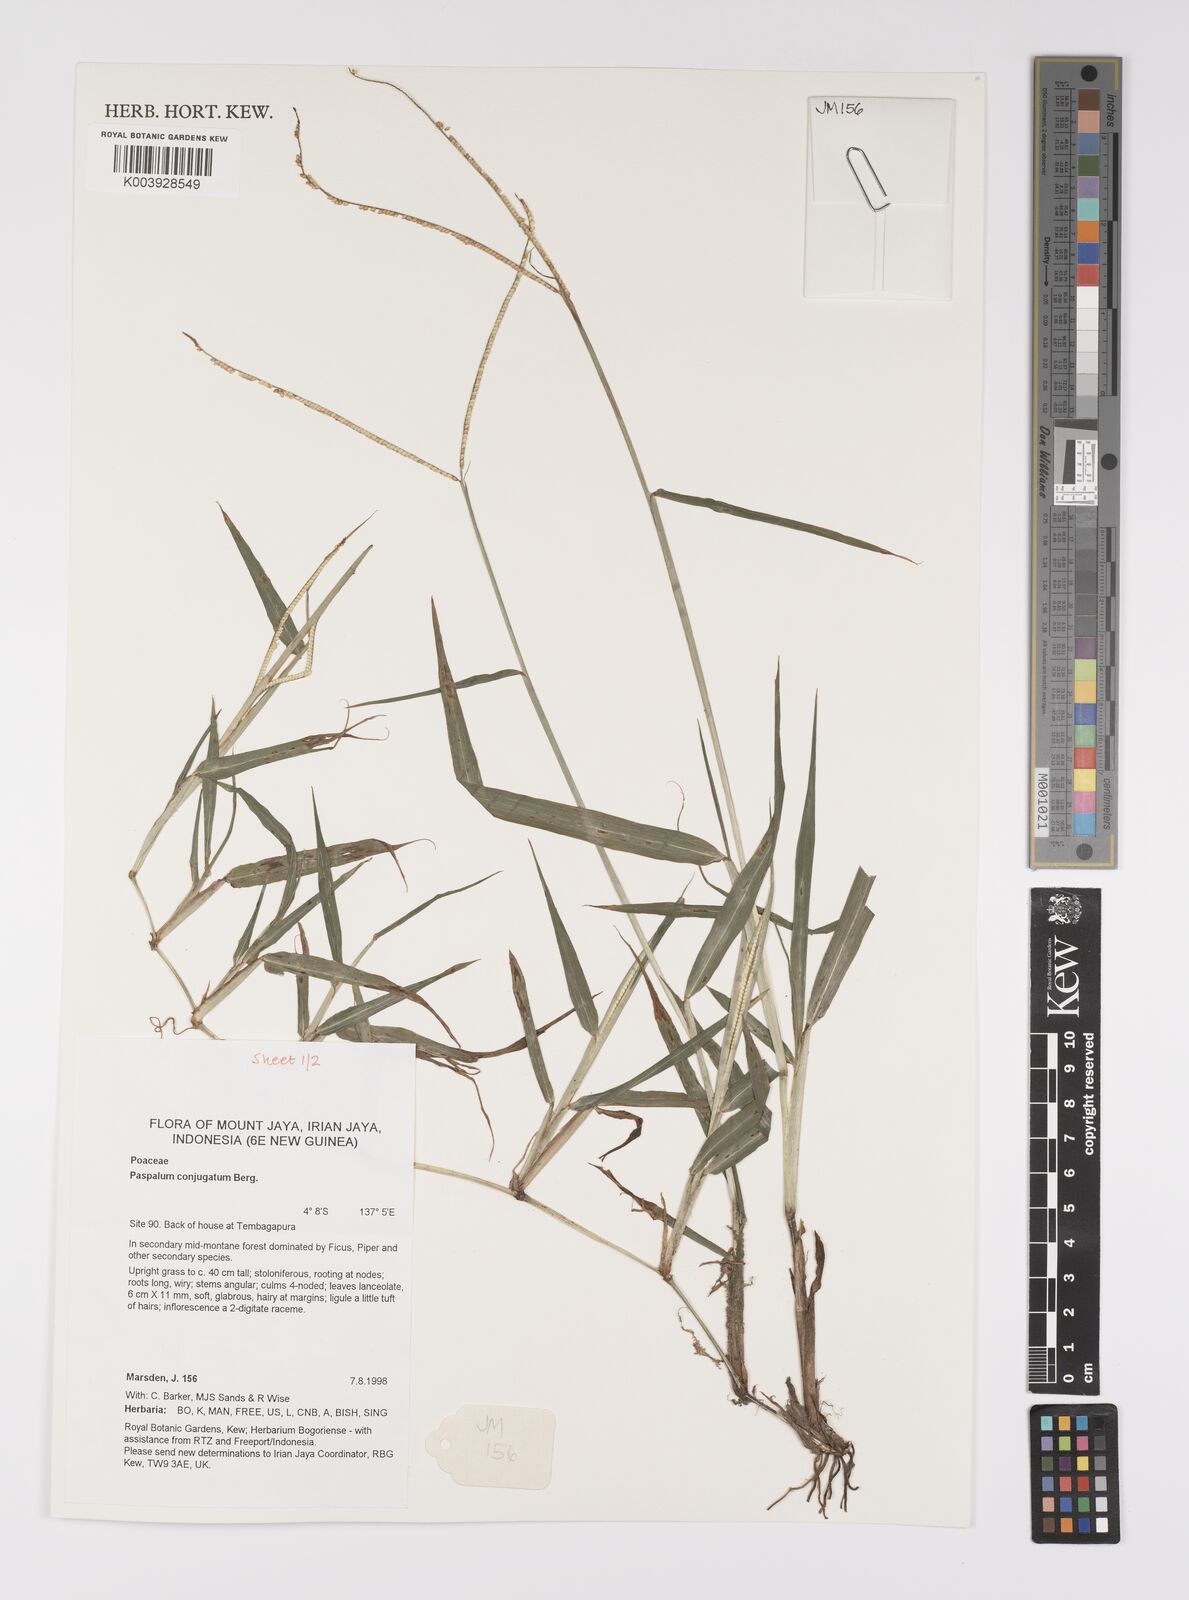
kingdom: Plantae
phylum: Tracheophyta
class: Liliopsida
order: Poales
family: Poaceae
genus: Paspalum
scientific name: Paspalum conjugatum
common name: Hilograss
